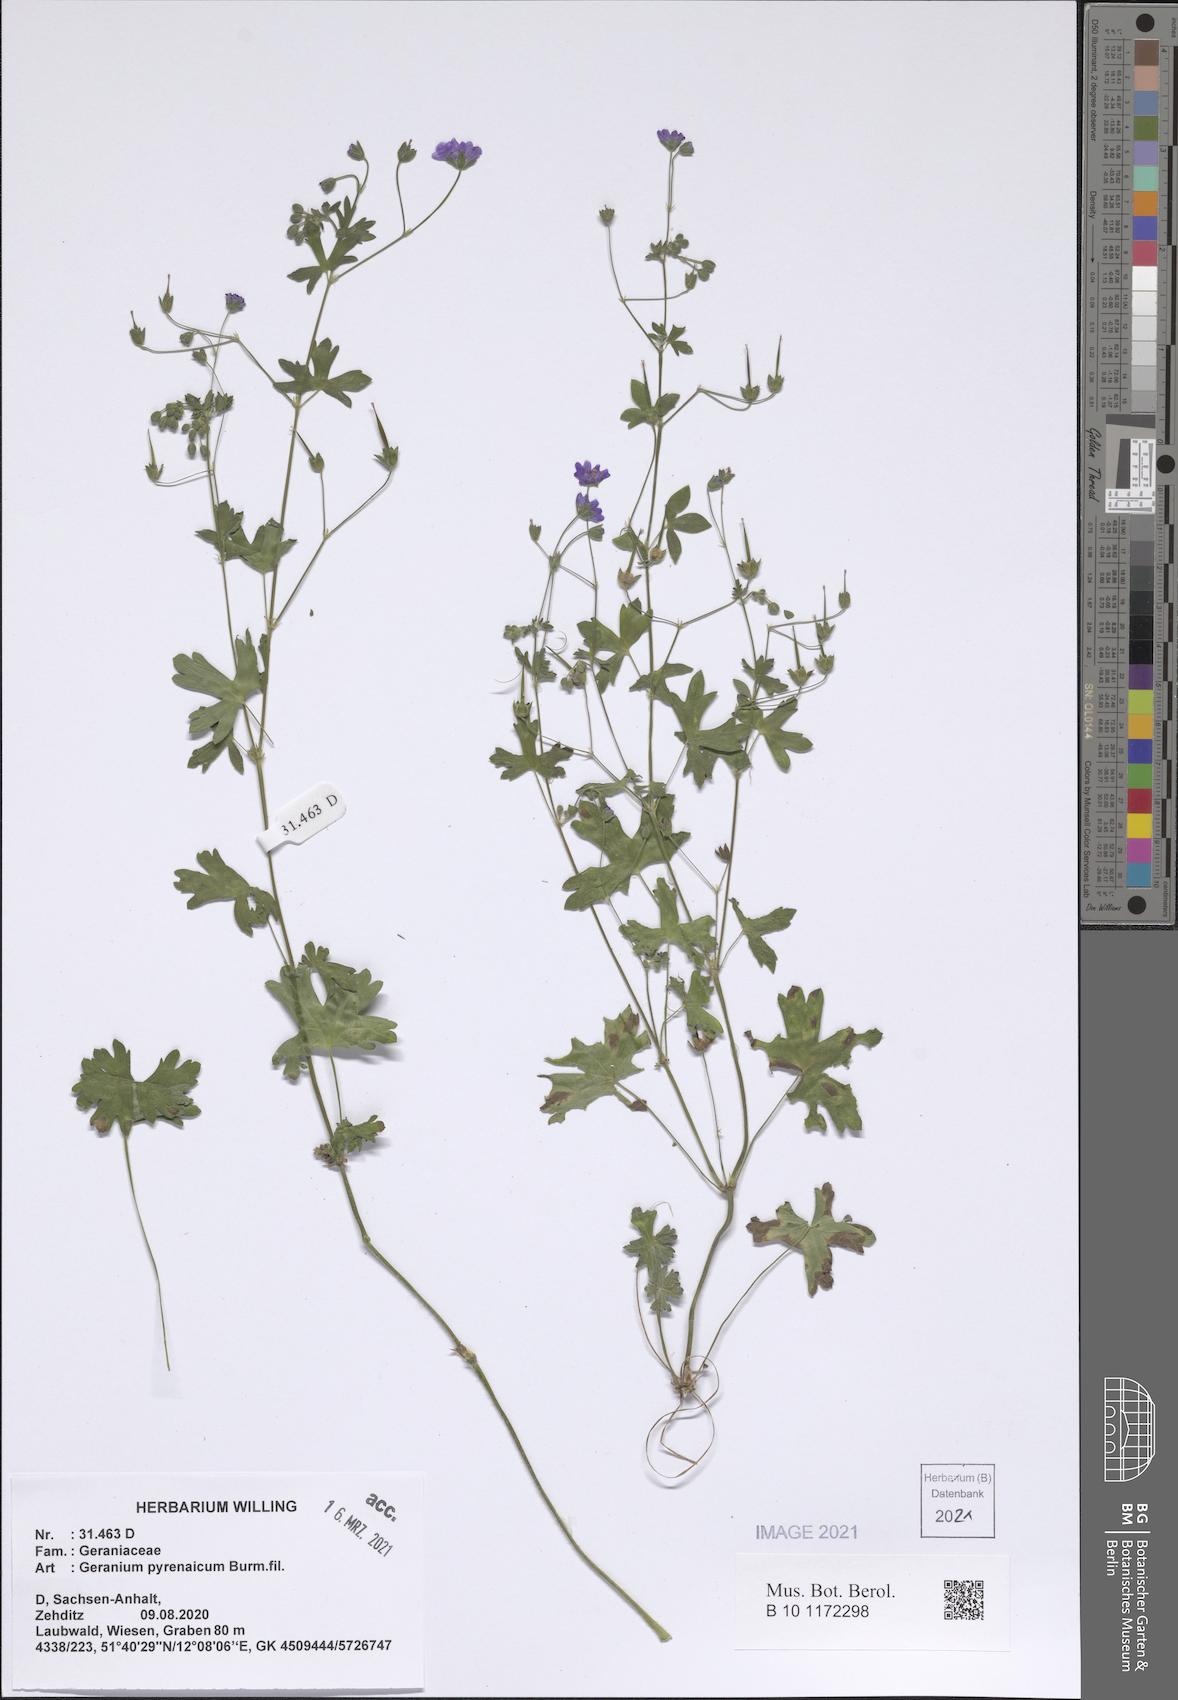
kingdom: Plantae
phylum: Tracheophyta
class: Magnoliopsida
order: Geraniales
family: Geraniaceae
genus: Geranium
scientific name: Geranium pyrenaicum
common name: Hedgerow crane's-bill
